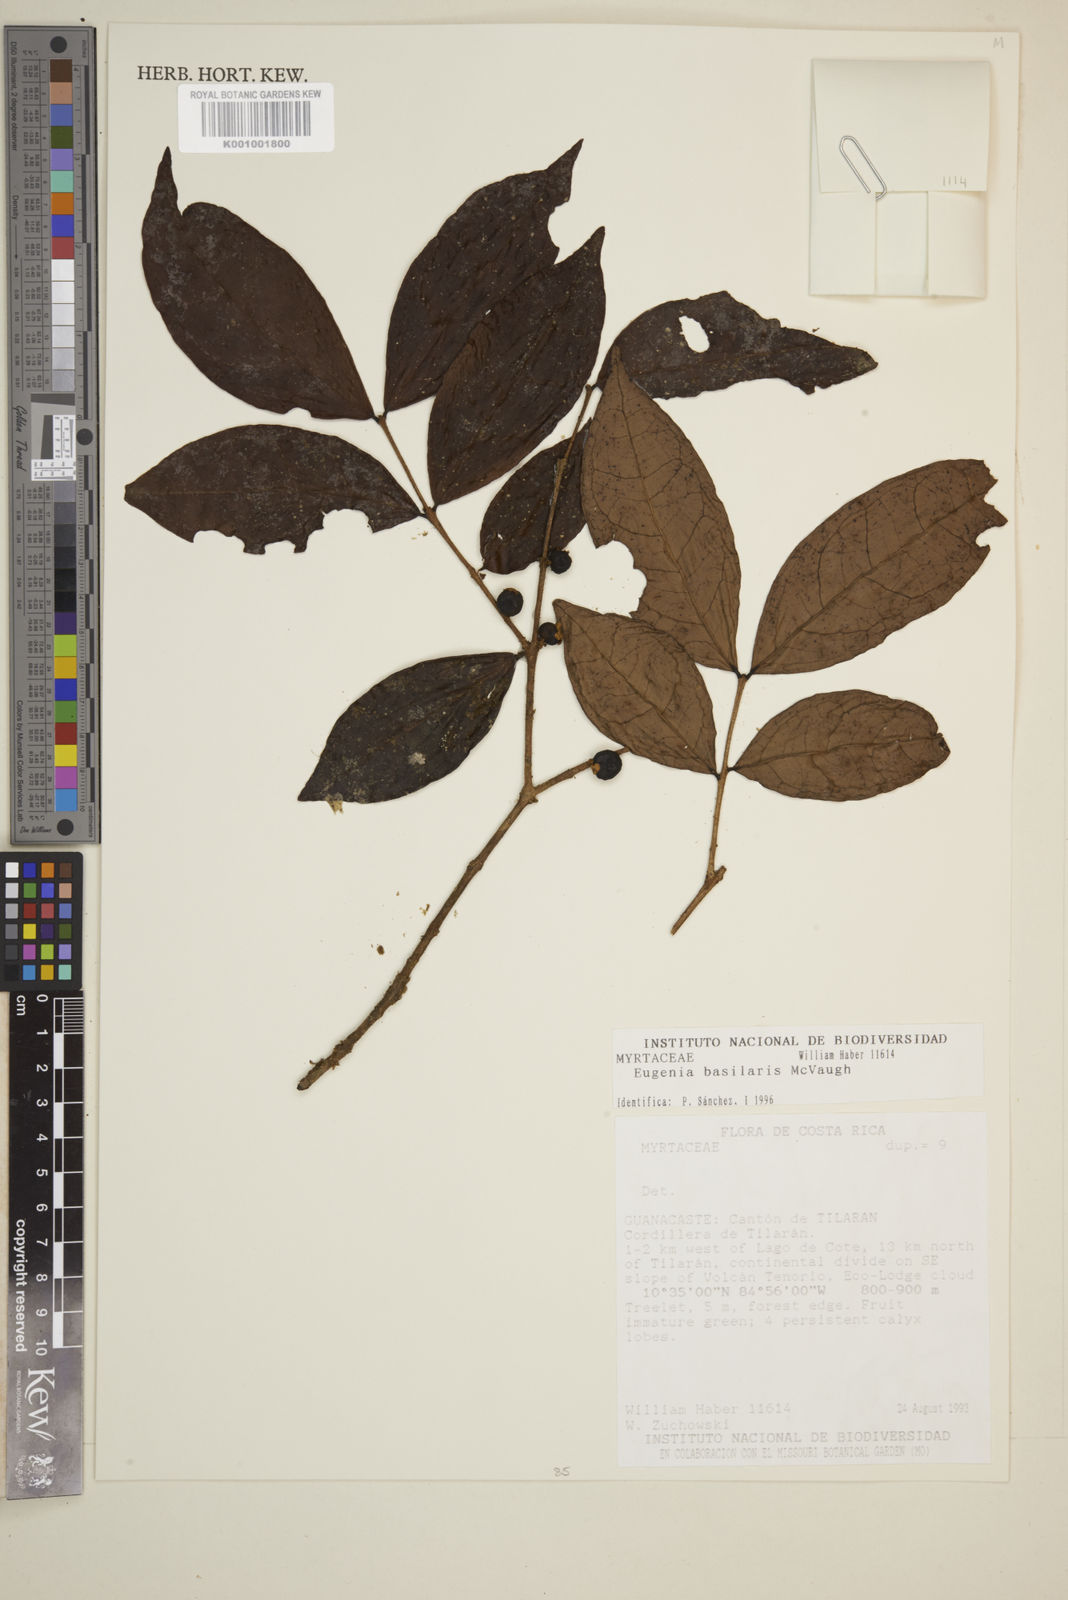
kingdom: Plantae
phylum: Tracheophyta
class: Magnoliopsida
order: Myrtales
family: Myrtaceae
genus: Eugenia
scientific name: Eugenia basilaris
